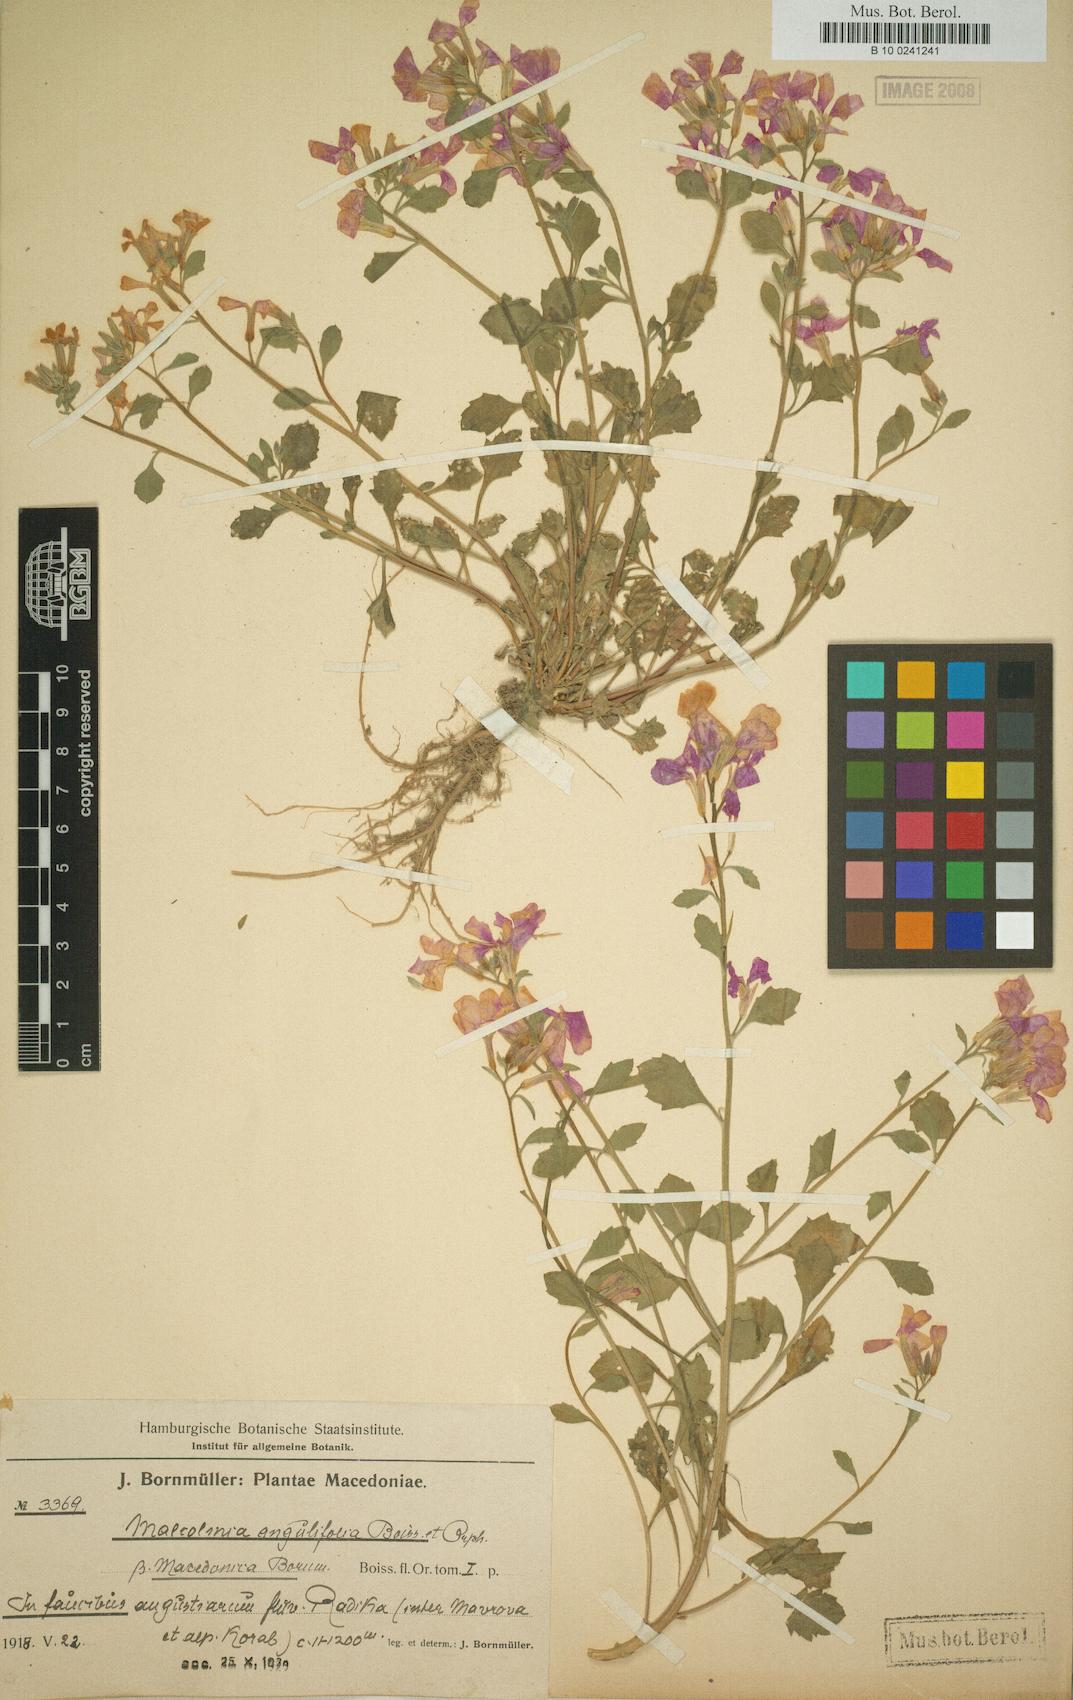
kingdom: Plantae
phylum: Tracheophyta
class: Magnoliopsida
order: Brassicales
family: Brassicaceae
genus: Malcolmia
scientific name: Malcolmia orsiniana
